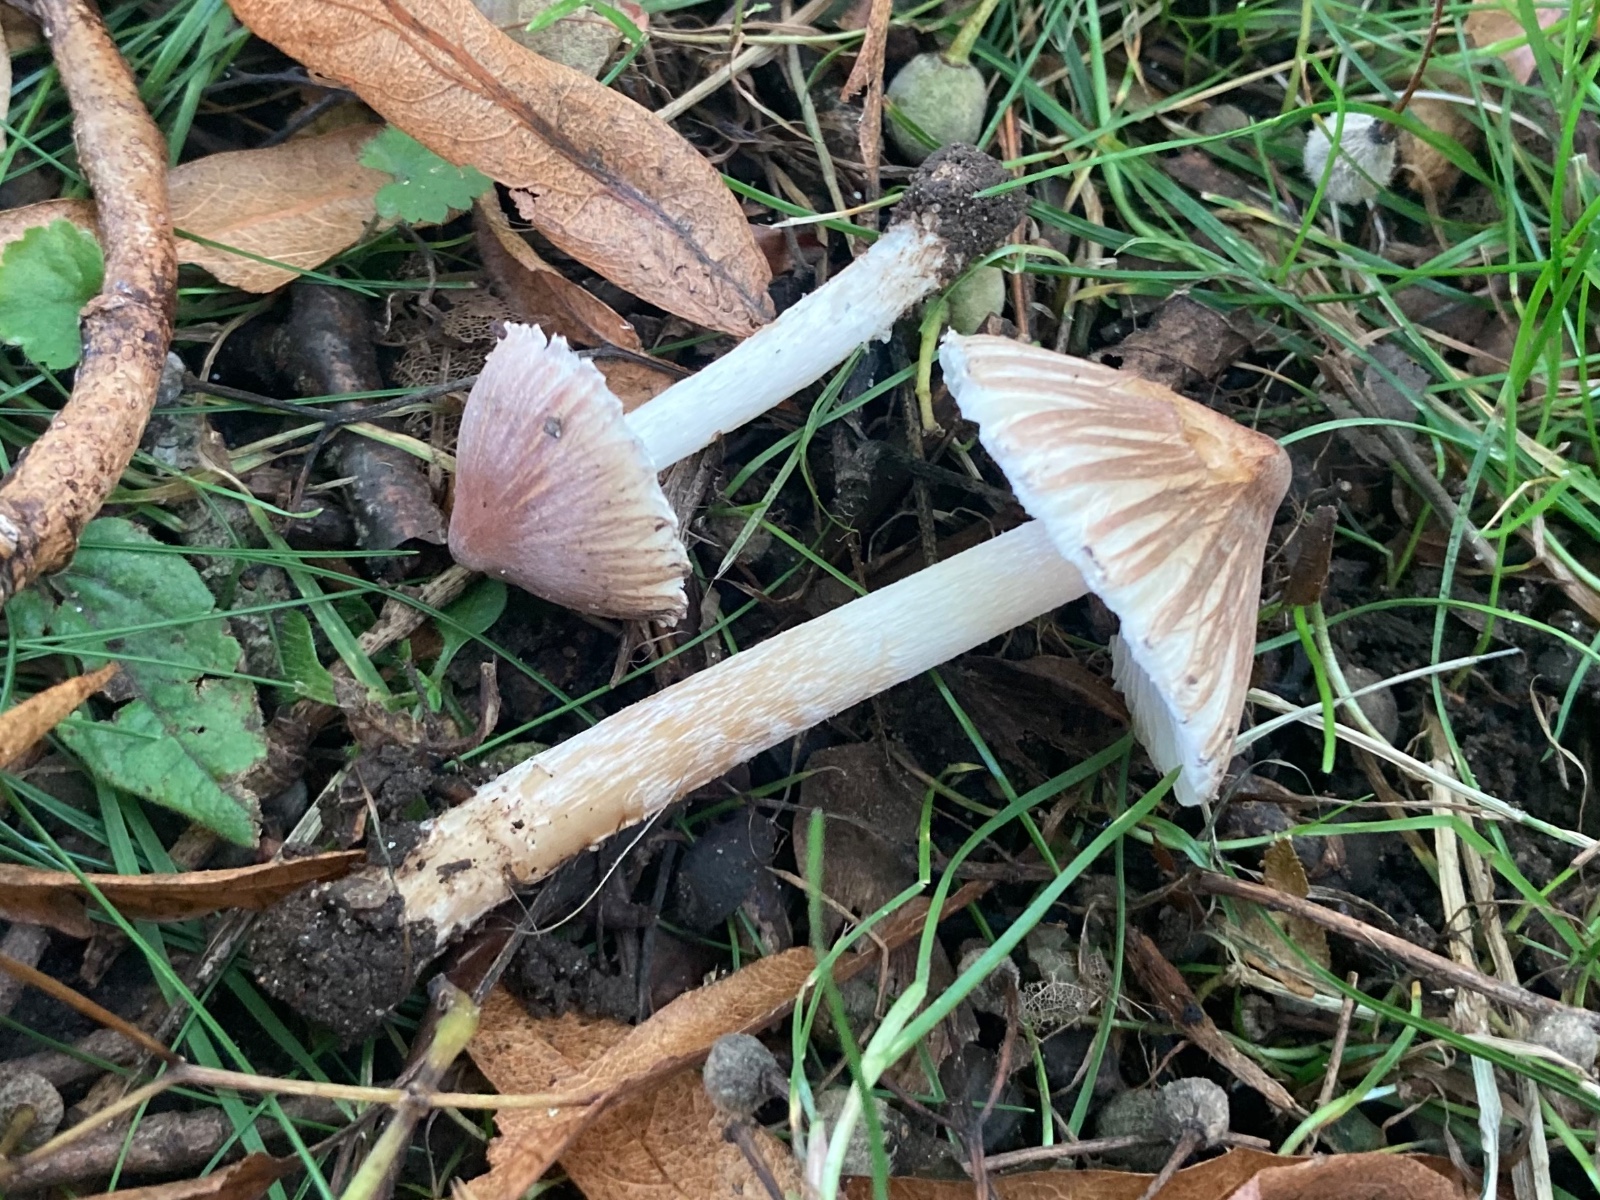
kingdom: Fungi
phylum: Basidiomycota
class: Agaricomycetes
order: Agaricales
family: Inocybaceae
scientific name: Inocybaceae
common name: trævlhatfamilien
